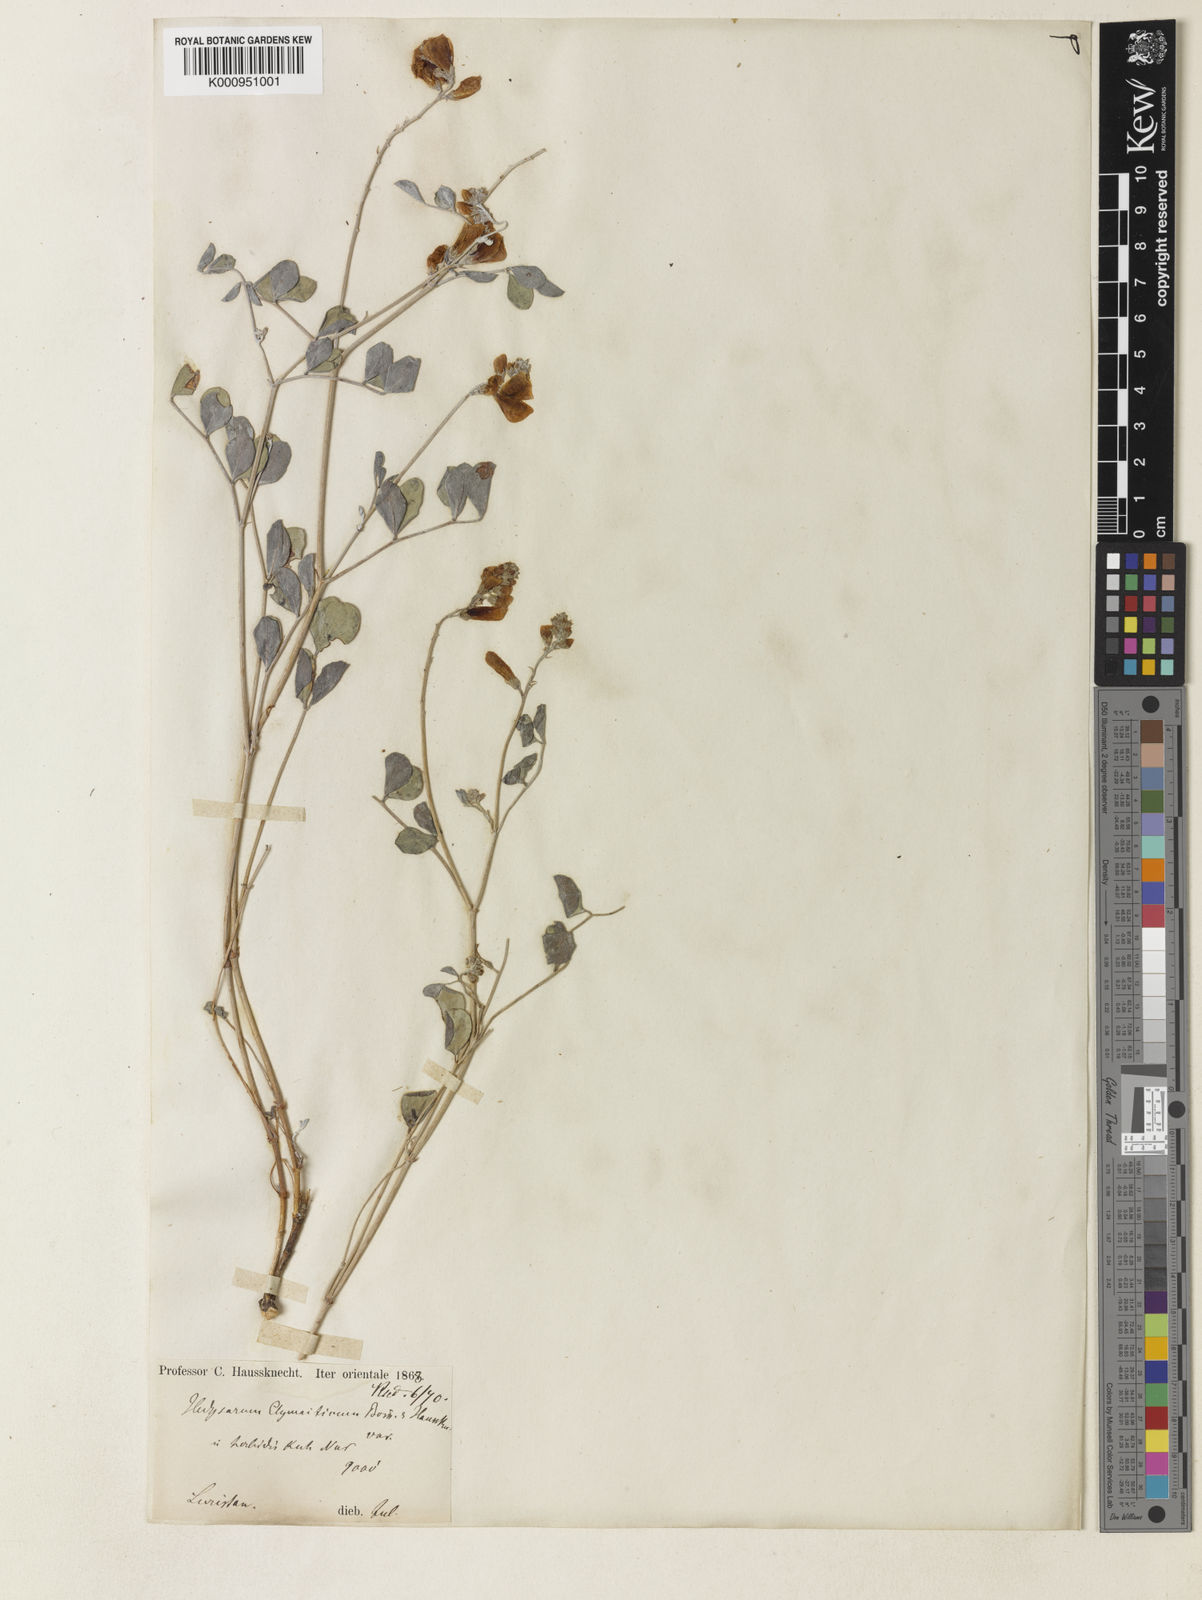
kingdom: Plantae
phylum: Tracheophyta
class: Magnoliopsida
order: Fabales
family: Fabaceae
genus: Hedysarum
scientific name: Hedysarum elymaiticum
